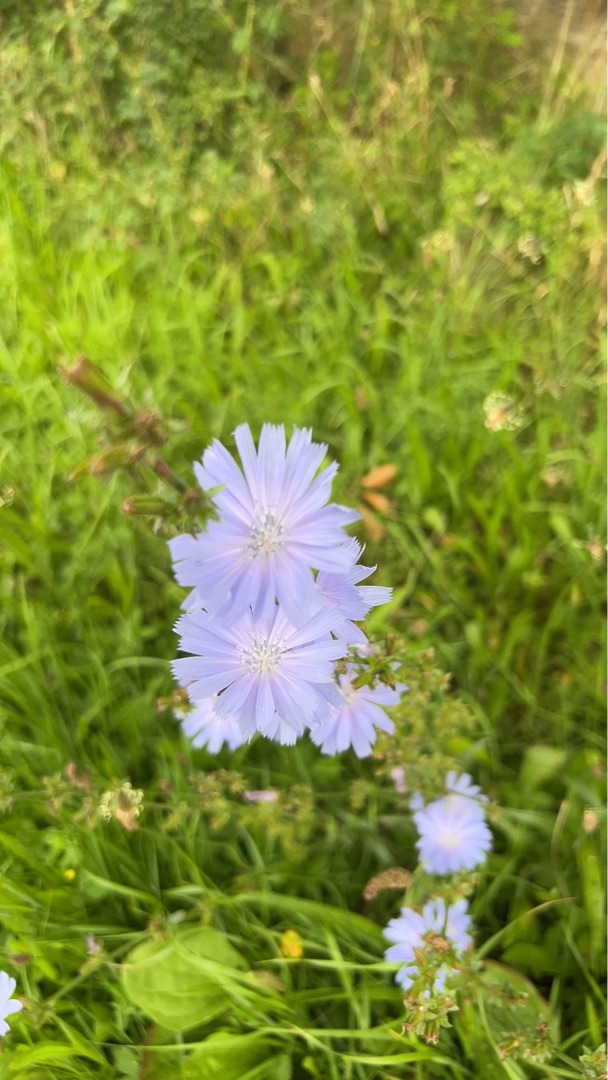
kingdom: Plantae
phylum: Tracheophyta
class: Magnoliopsida
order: Asterales
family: Asteraceae
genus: Cichorium
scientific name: Cichorium intybus
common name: Cikorie
